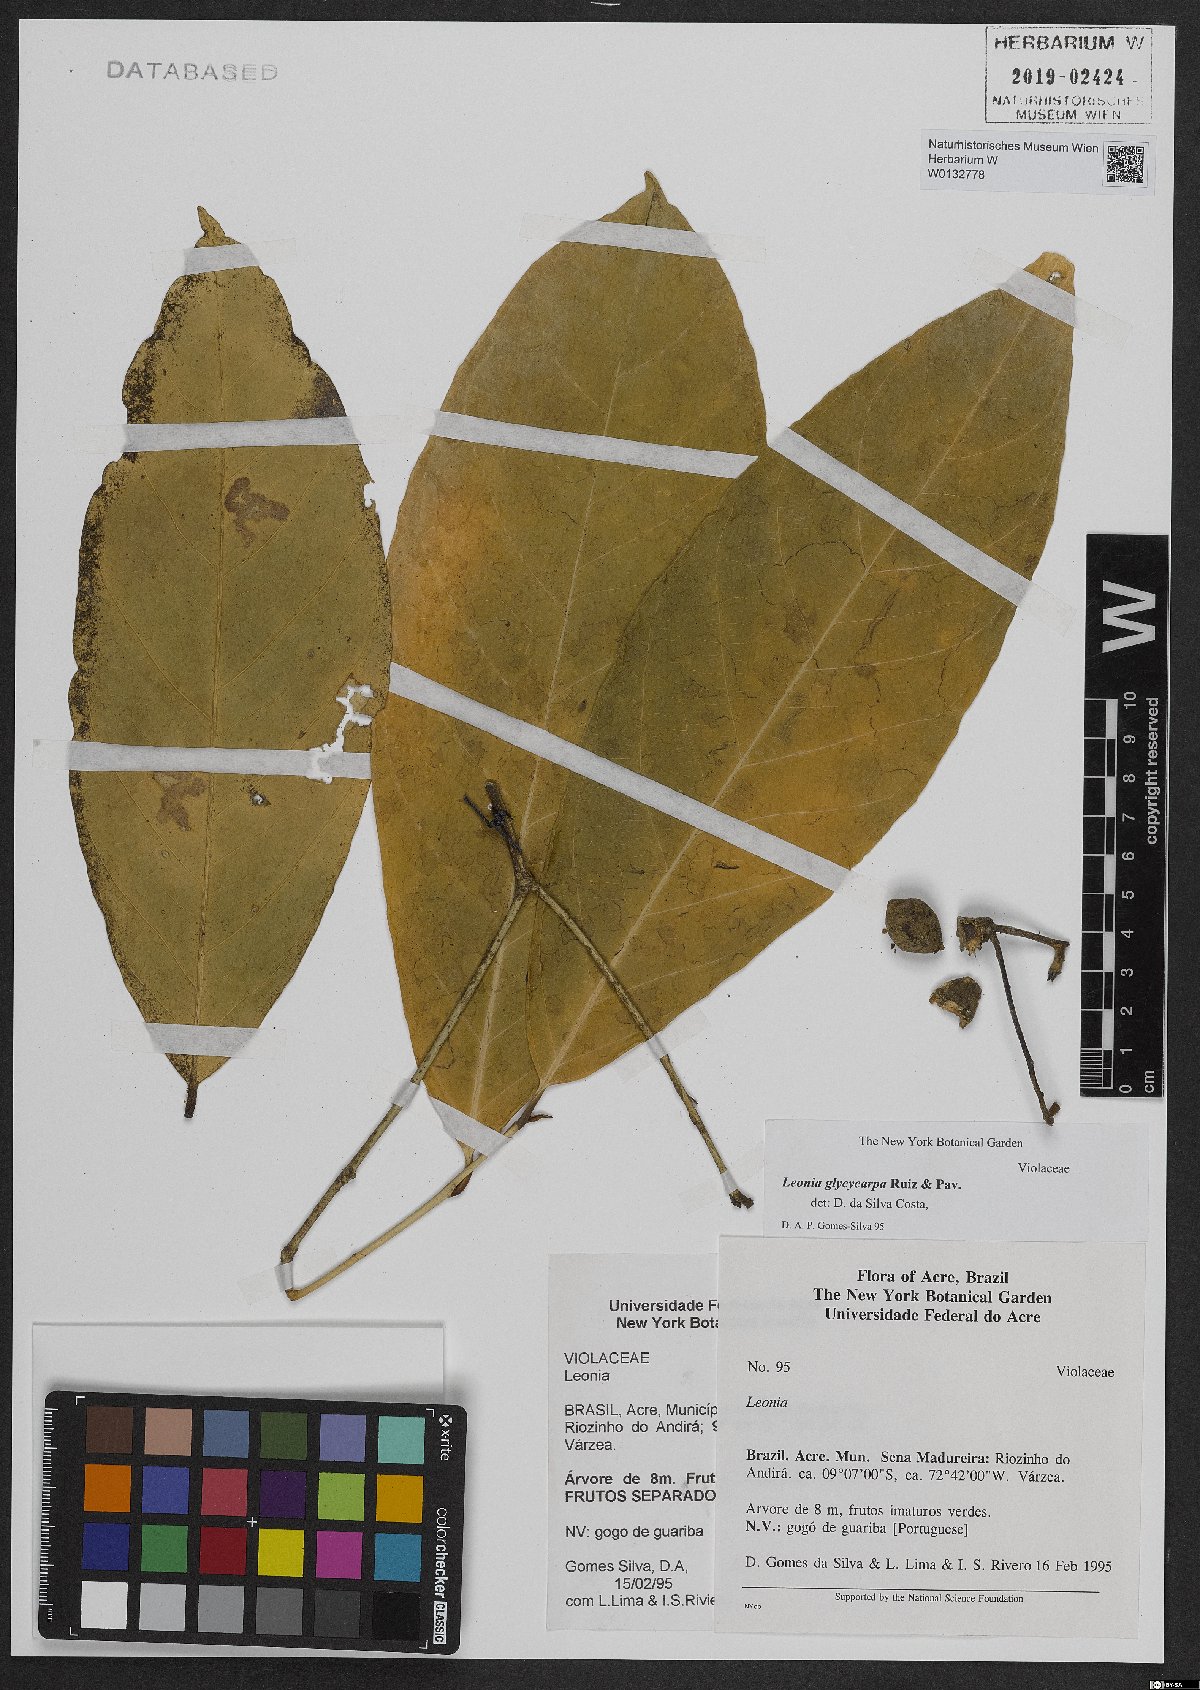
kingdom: Plantae
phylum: Tracheophyta
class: Magnoliopsida
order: Malpighiales
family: Violaceae
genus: Leonia
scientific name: Leonia glycycarpa
